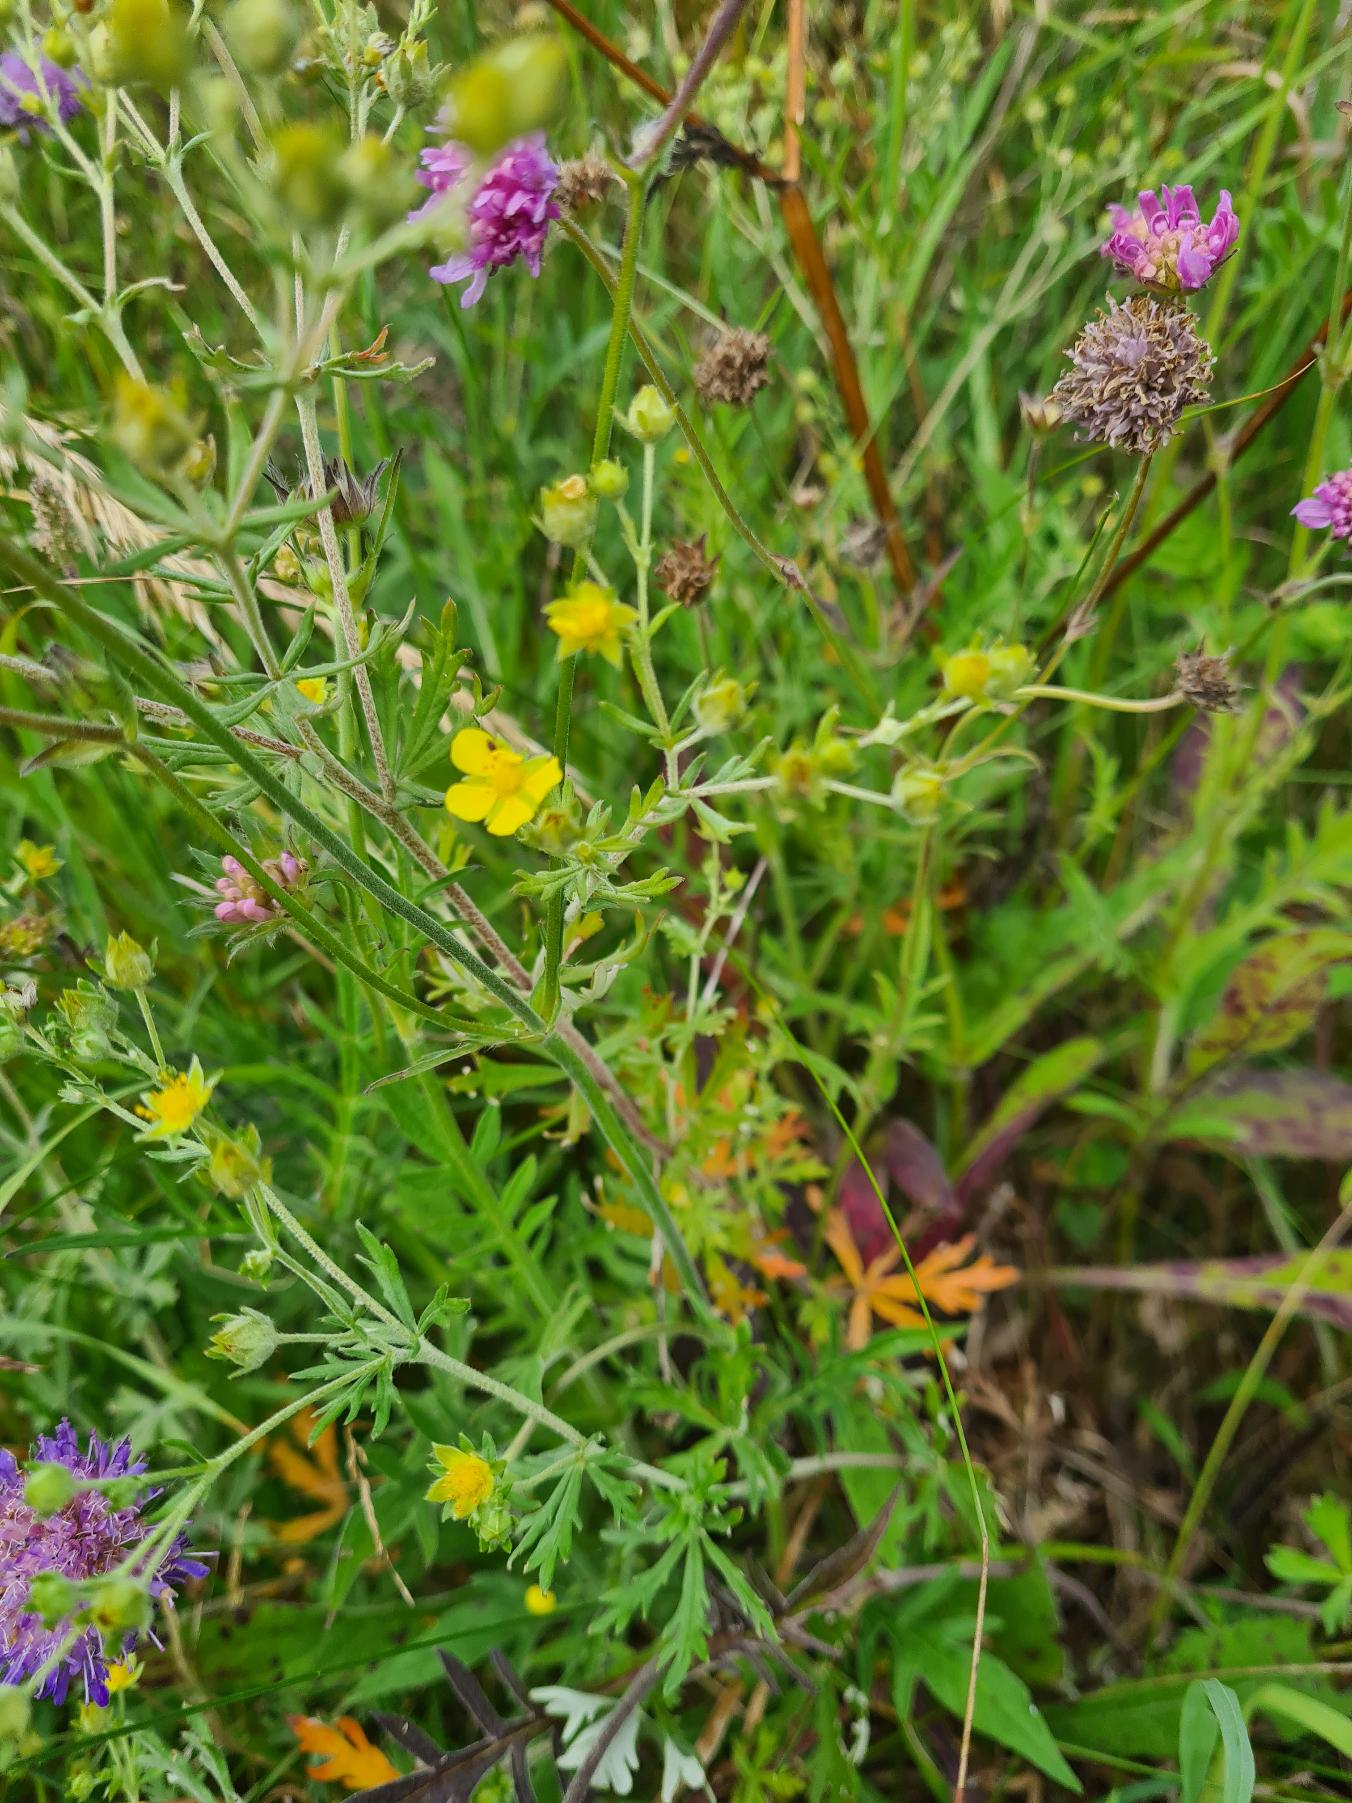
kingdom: Plantae
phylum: Tracheophyta
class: Magnoliopsida
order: Rosales
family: Rosaceae
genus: Potentilla
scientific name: Potentilla inclinata
